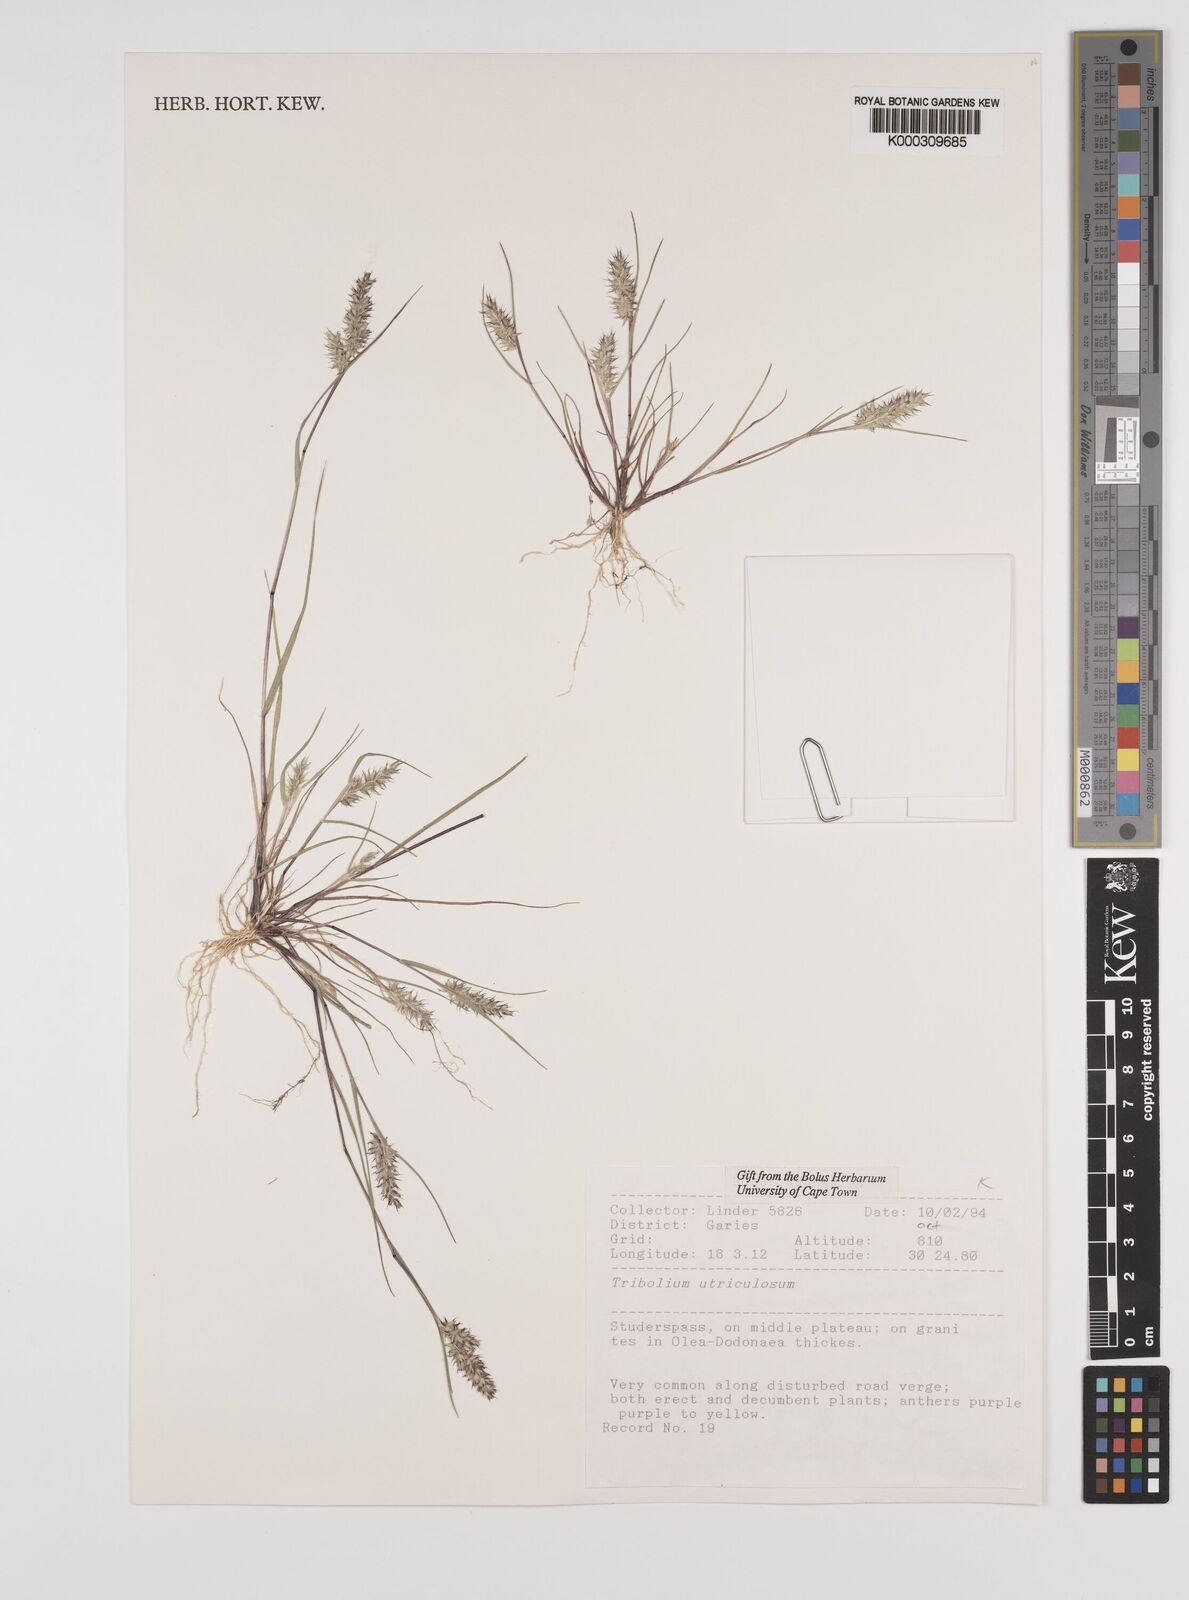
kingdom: Plantae
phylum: Tracheophyta
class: Liliopsida
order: Poales
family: Poaceae
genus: Tribolium
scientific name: Tribolium utriculosum
